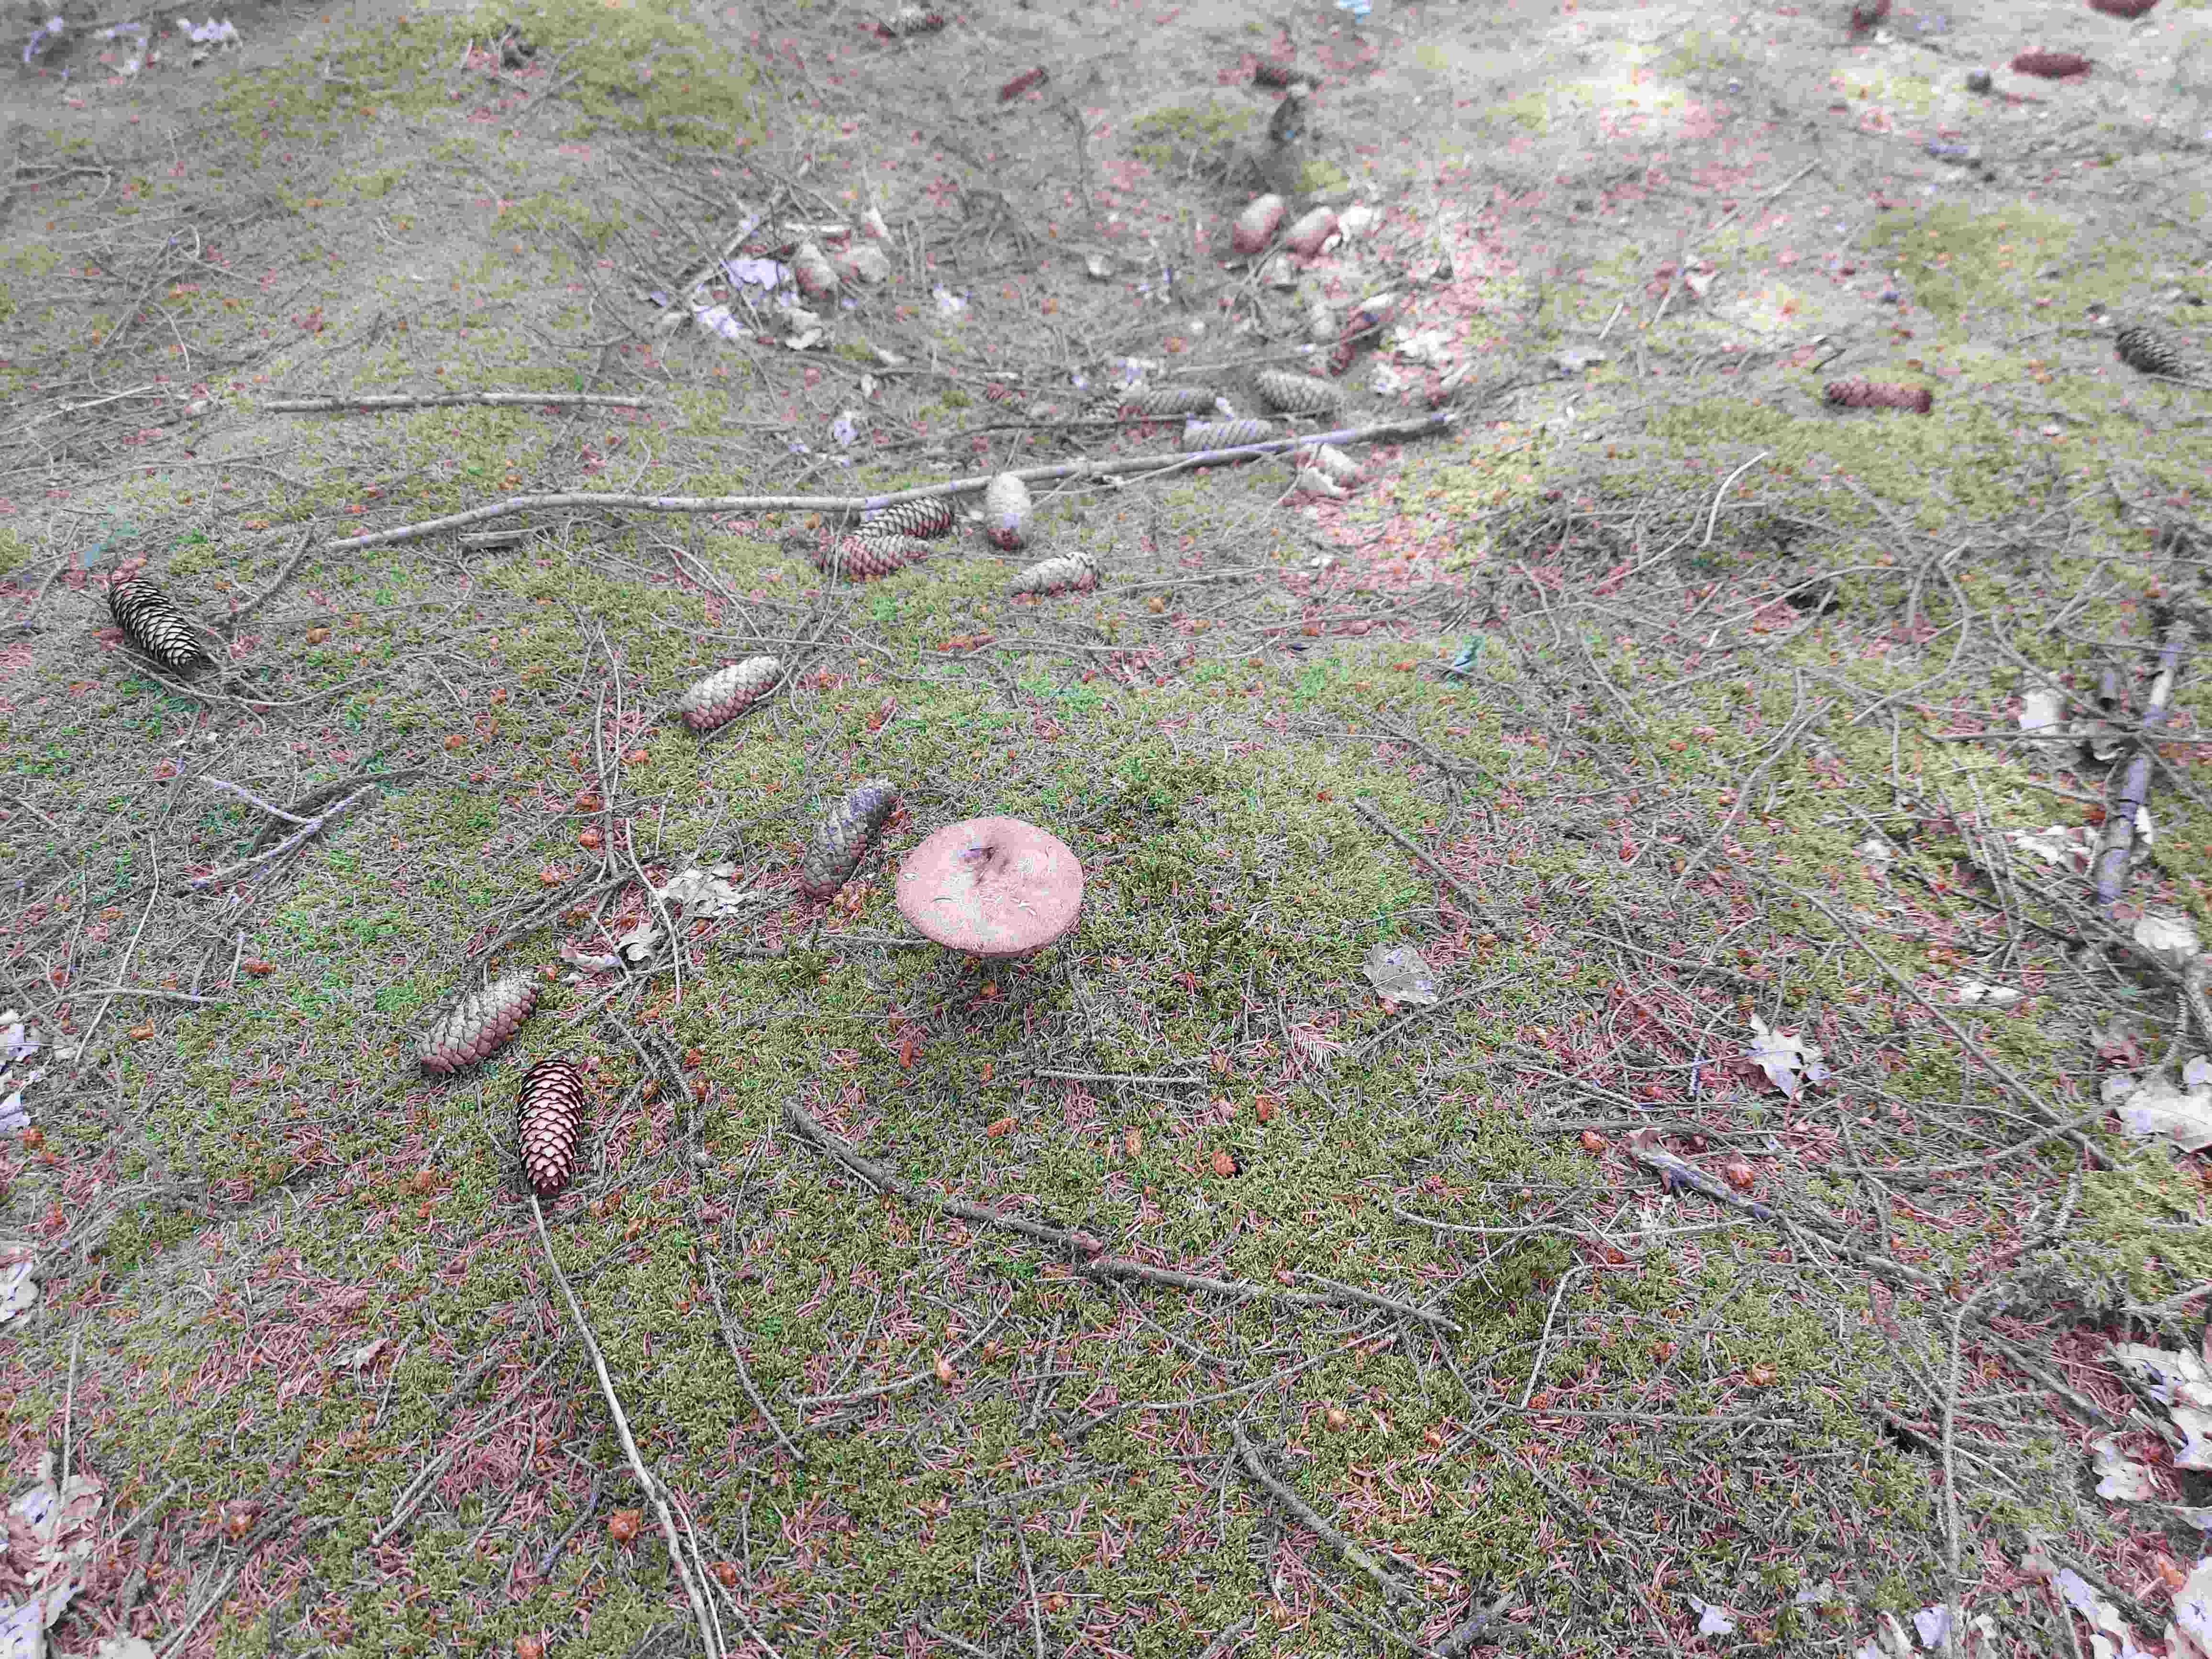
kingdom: Fungi
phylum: Basidiomycota
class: Agaricomycetes
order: Boletales
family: Boletaceae
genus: Leccinum
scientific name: Leccinum vulpinum
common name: fyrre-skælrørhat
